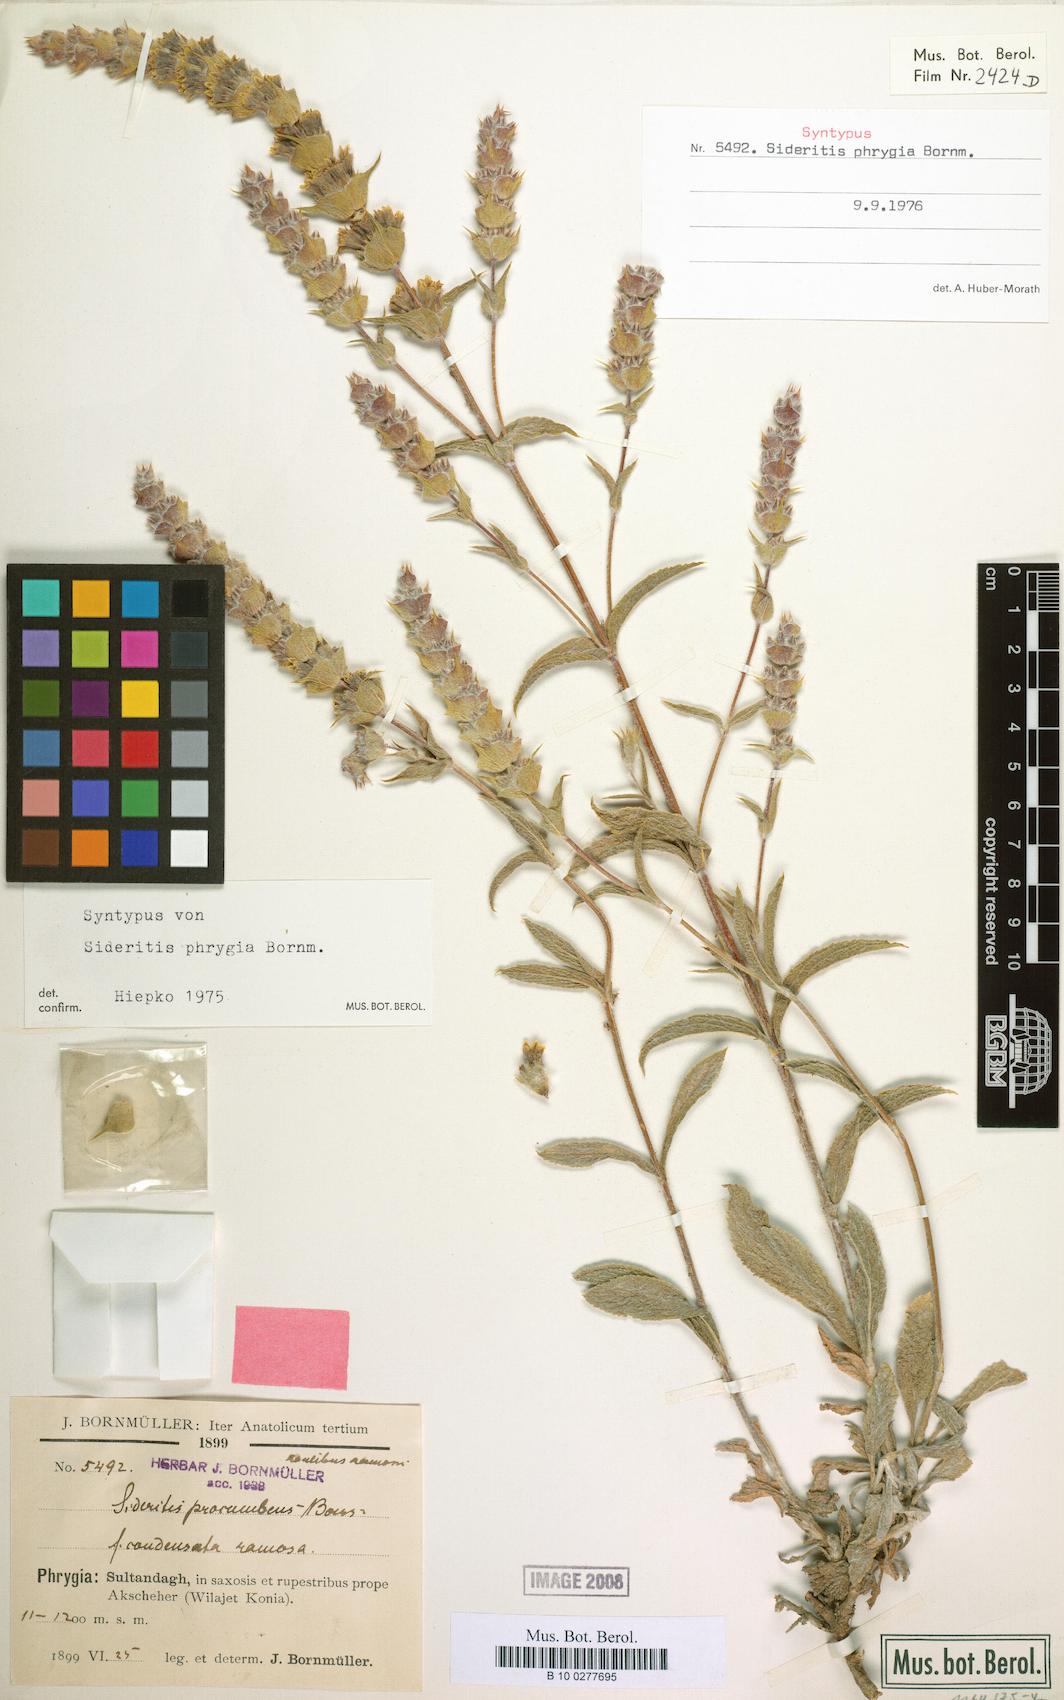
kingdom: Plantae
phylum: Tracheophyta
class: Magnoliopsida
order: Lamiales
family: Lamiaceae
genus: Sideritis
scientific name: Sideritis phrygia
